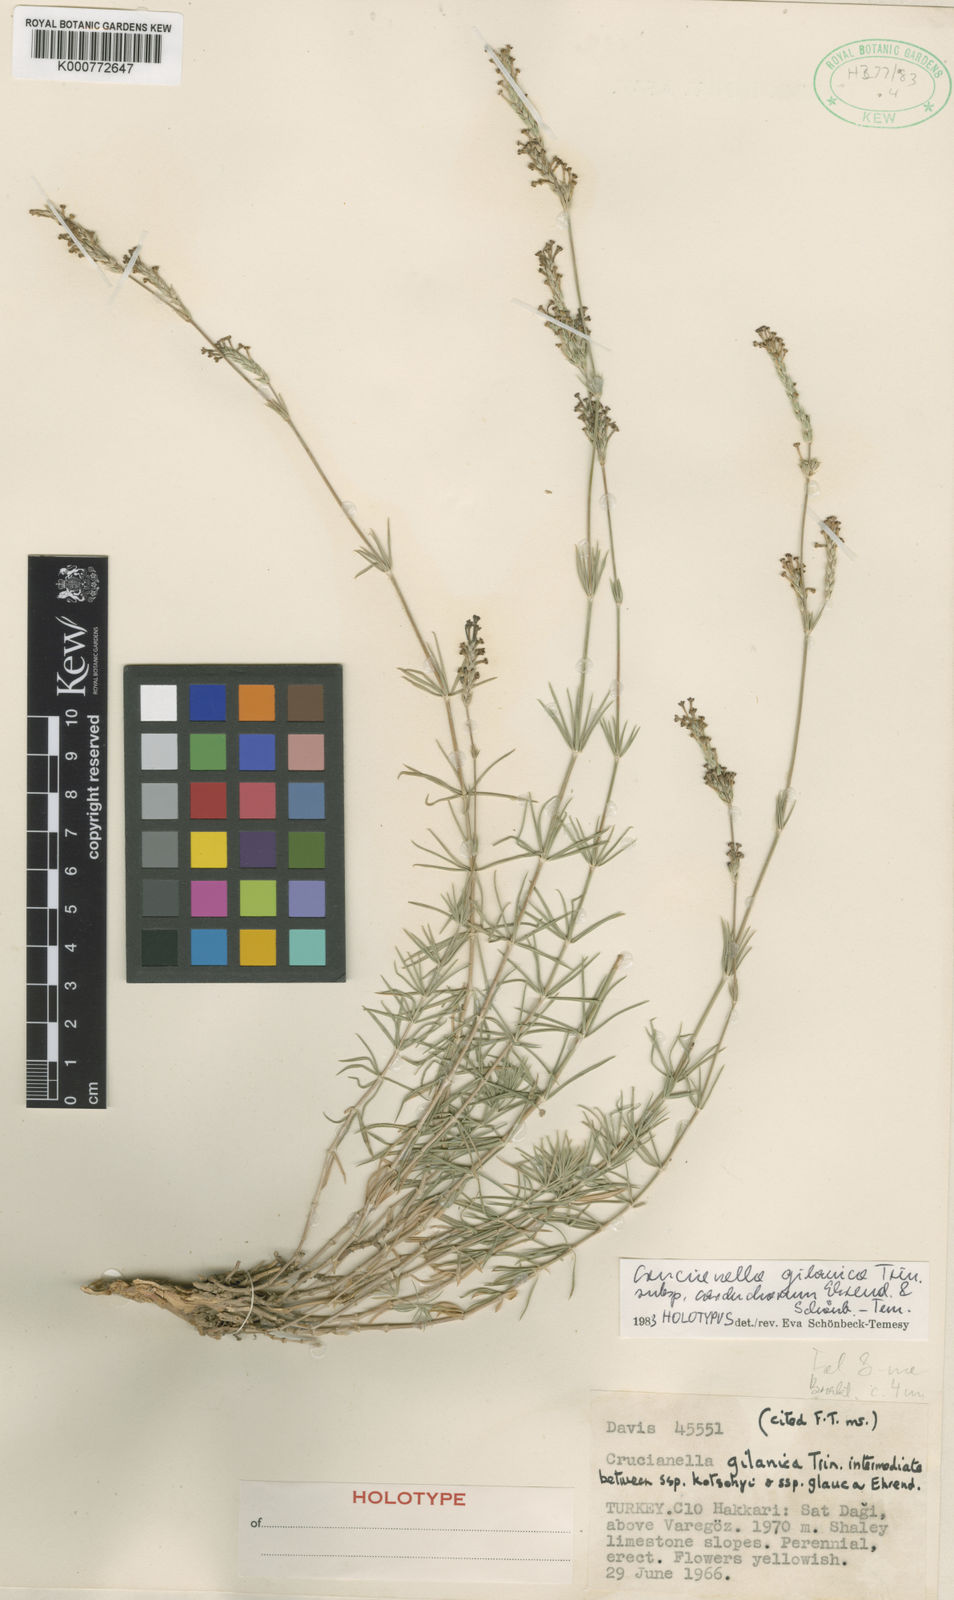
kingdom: Plantae
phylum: Tracheophyta
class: Magnoliopsida
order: Gentianales
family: Rubiaceae
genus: Crucianella
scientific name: Crucianella gilanica
